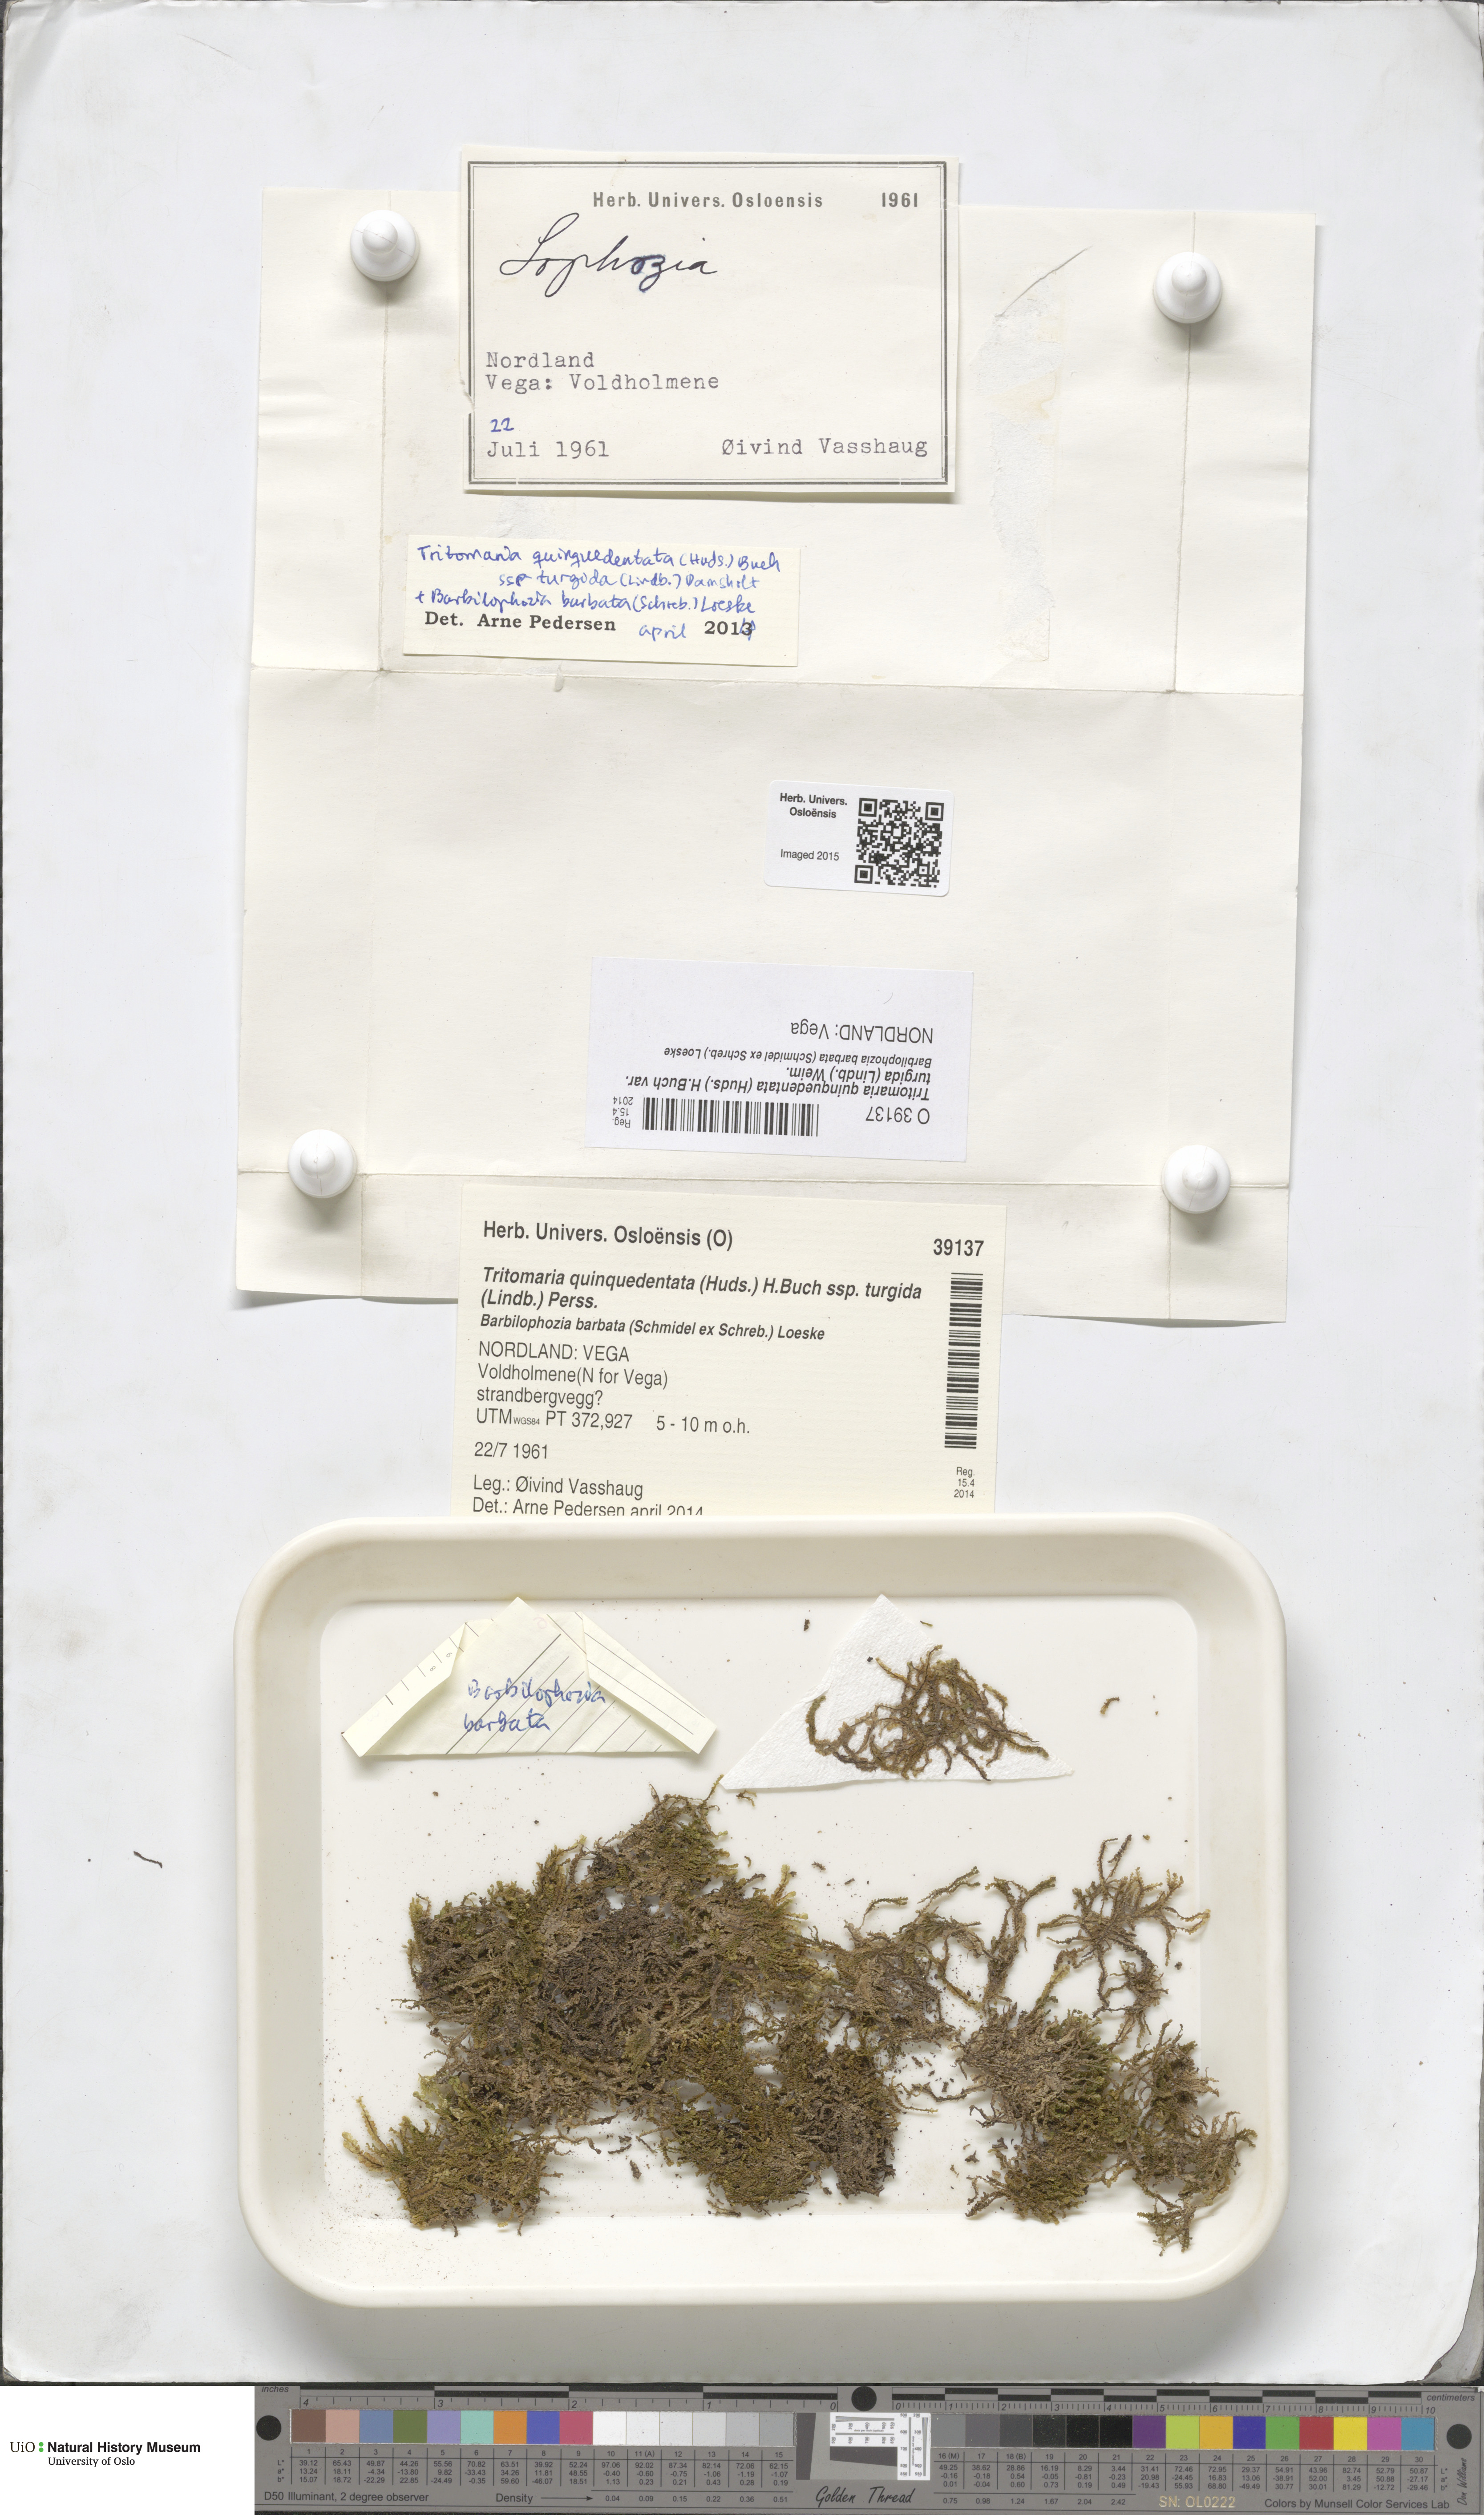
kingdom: Plantae
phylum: Marchantiophyta
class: Jungermanniopsida
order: Jungermanniales
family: Lophoziaceae
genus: Trilophozia
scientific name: Trilophozia quinquedentata
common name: Large notchwort
